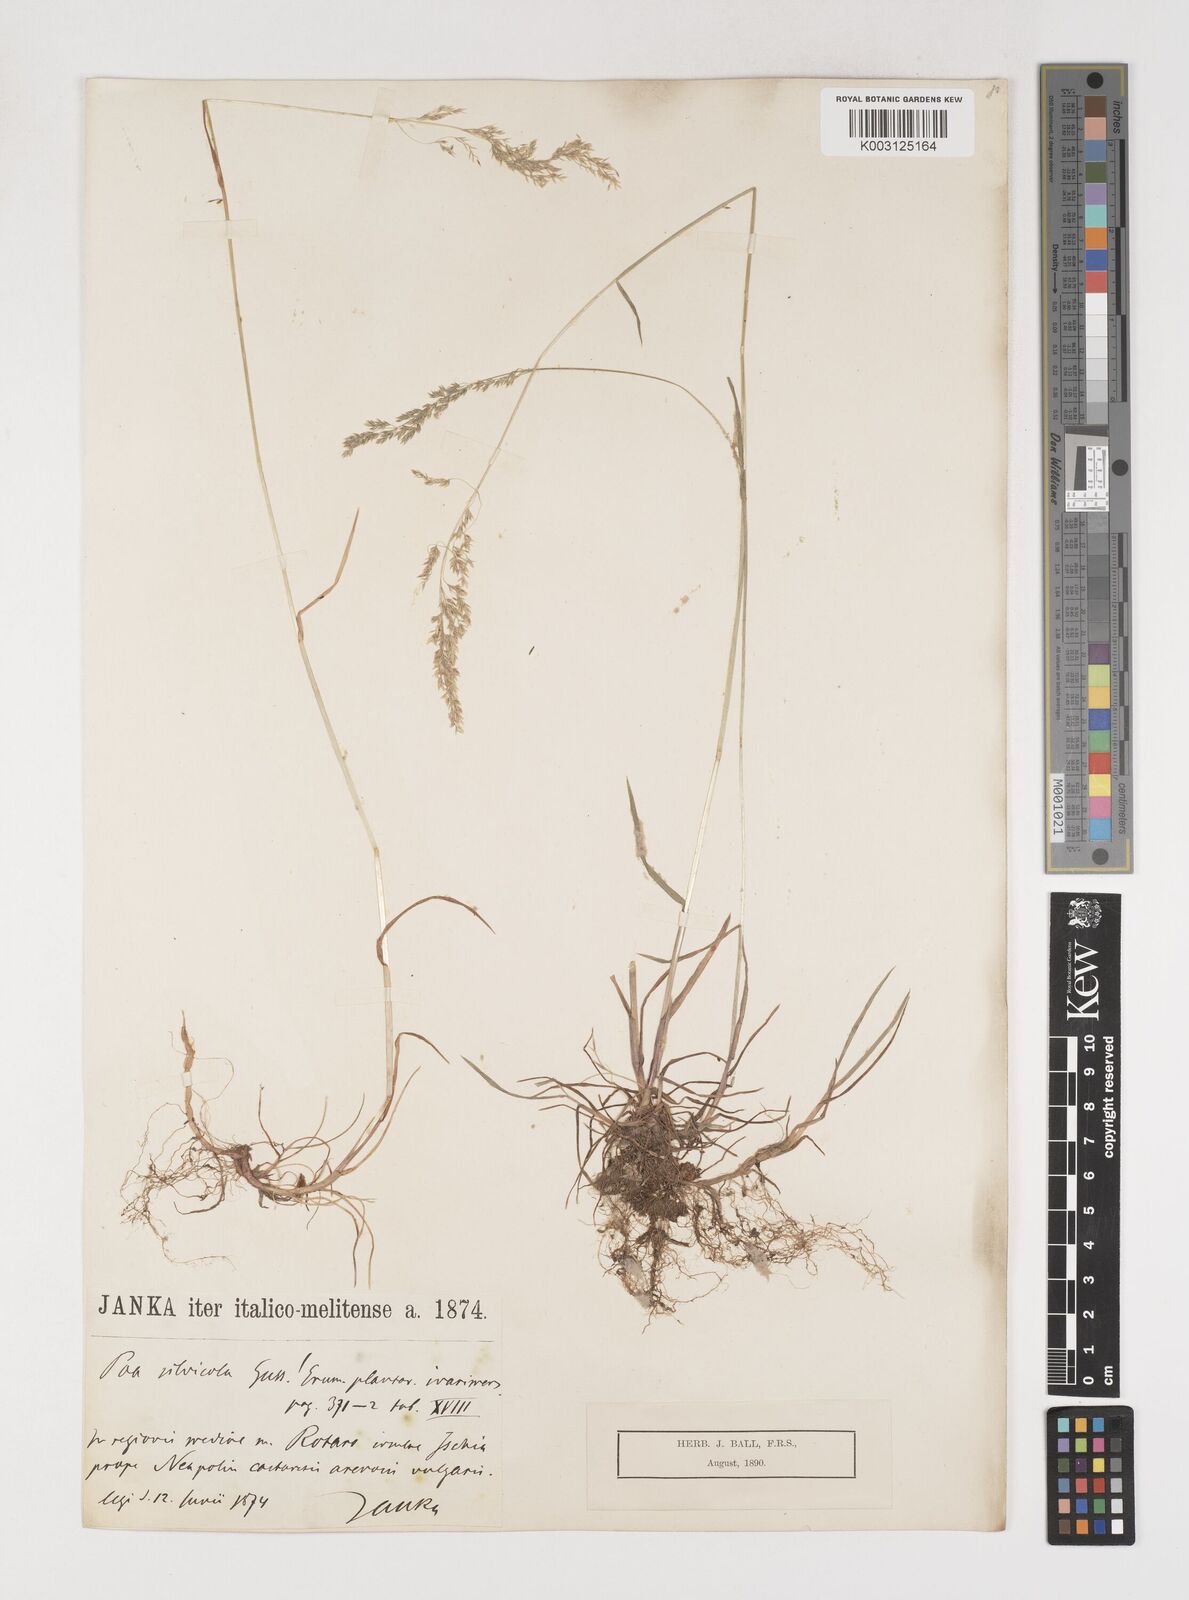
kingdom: Plantae
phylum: Tracheophyta
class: Liliopsida
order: Poales
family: Poaceae
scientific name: Poaceae
